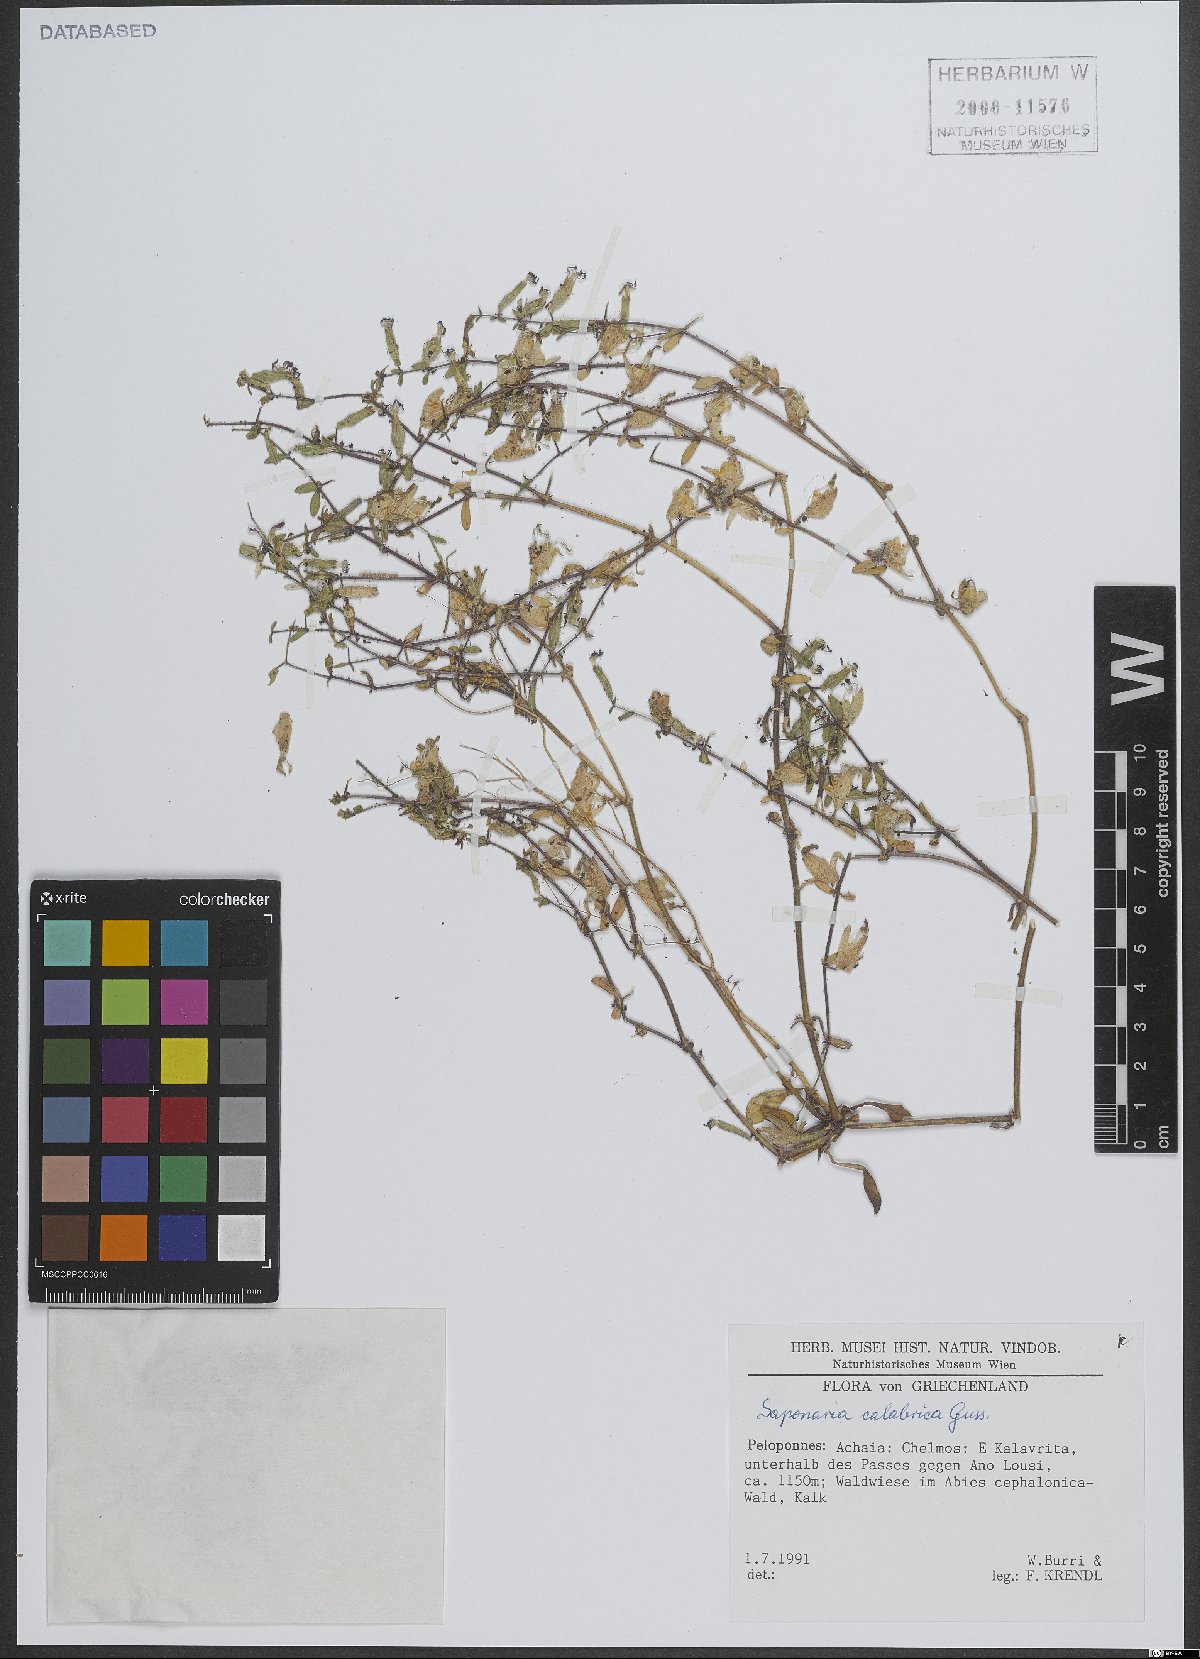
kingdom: Plantae
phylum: Tracheophyta
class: Magnoliopsida
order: Caryophyllales
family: Caryophyllaceae
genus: Saponaria
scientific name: Saponaria calabrica
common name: Adriatic soapwort
